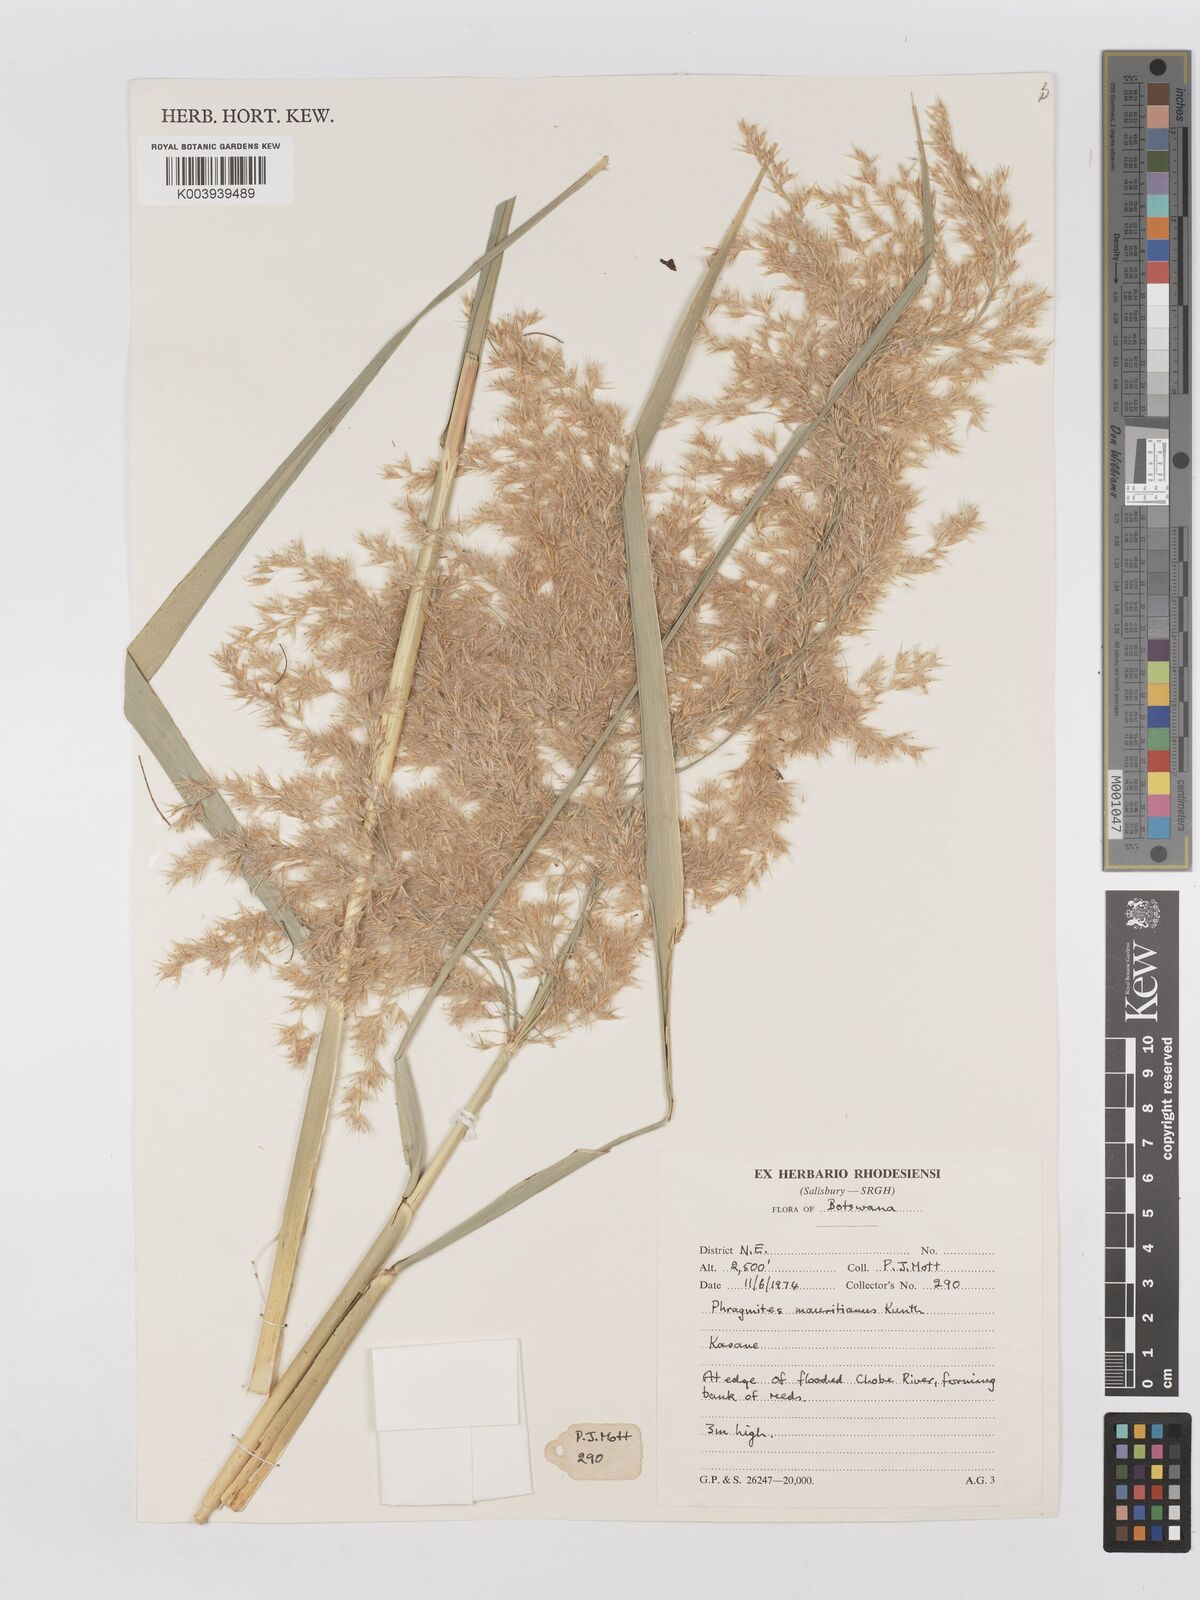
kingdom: Plantae
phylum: Tracheophyta
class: Liliopsida
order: Poales
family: Poaceae
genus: Phragmites
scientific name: Phragmites mauritianus
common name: Reed grass
